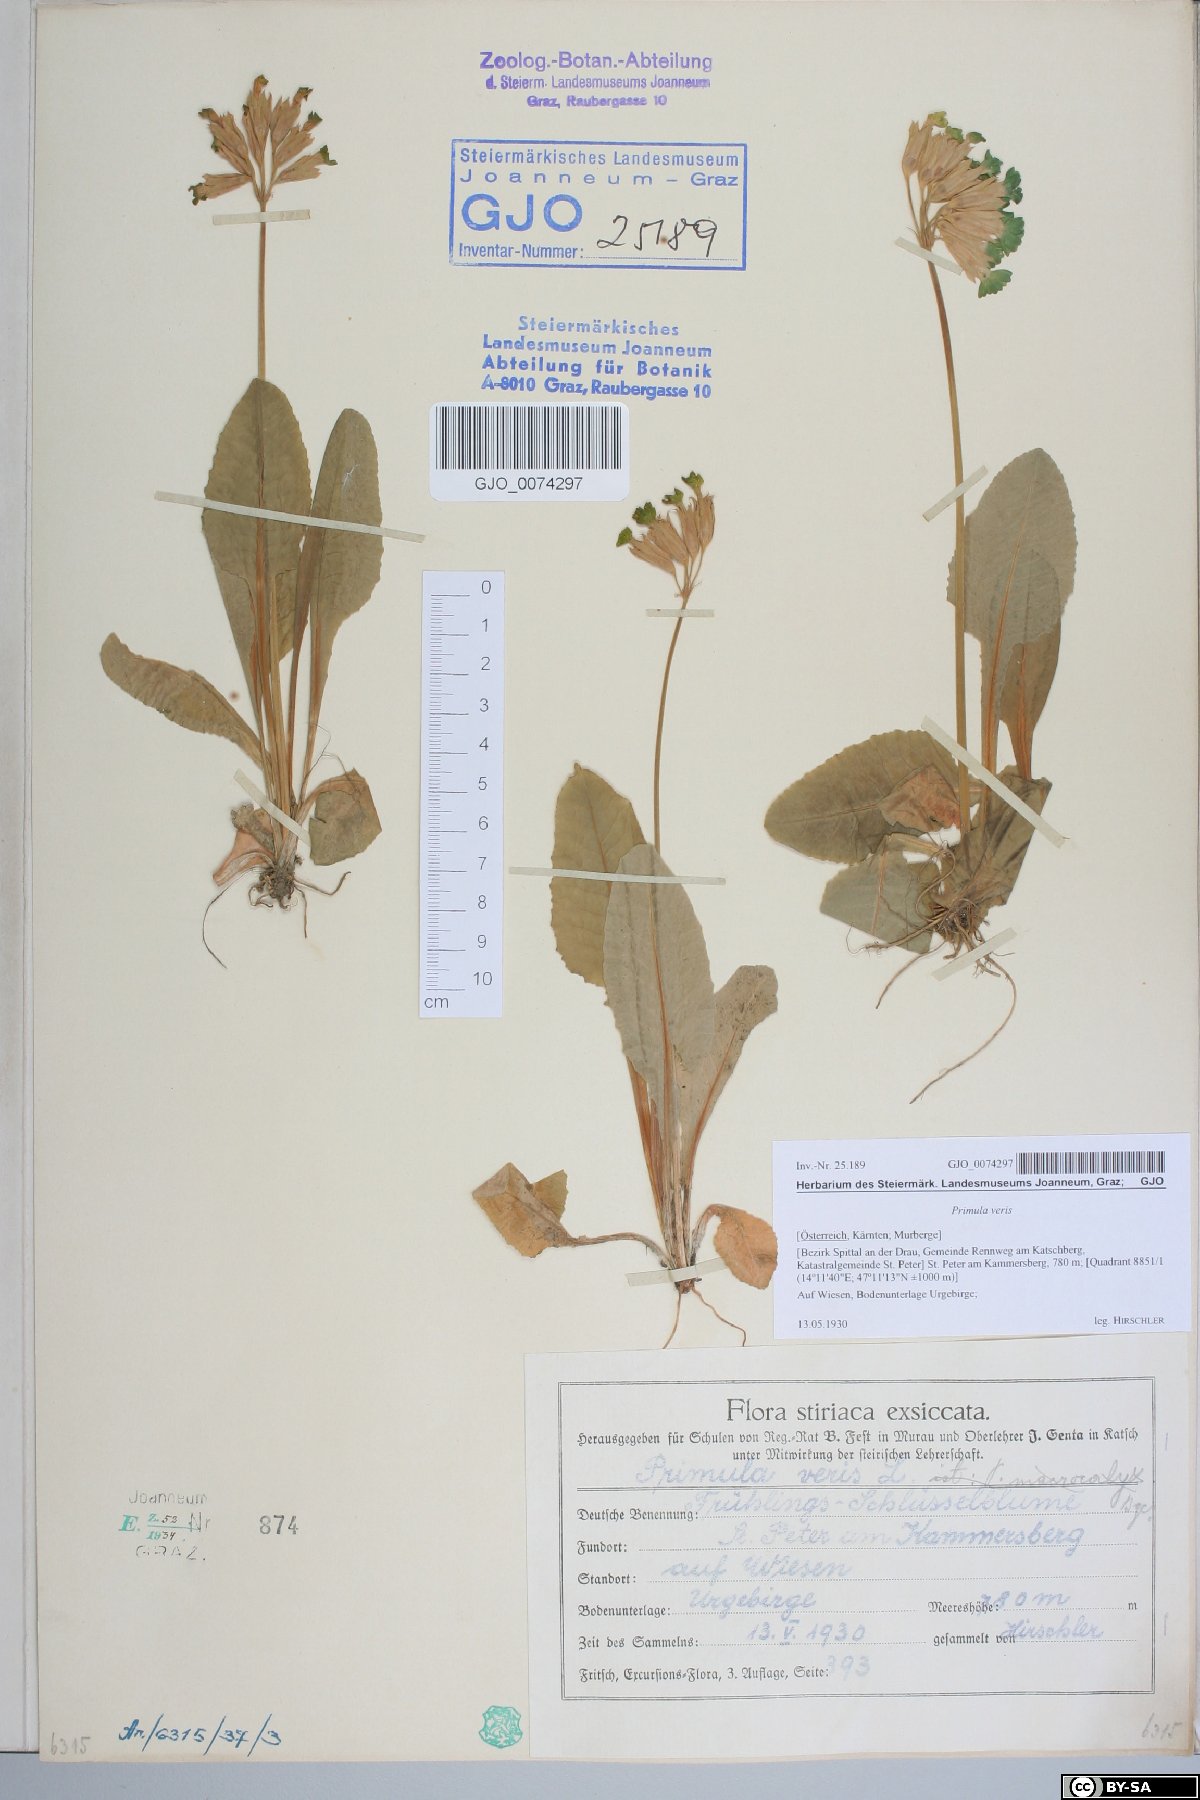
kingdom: Plantae
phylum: Tracheophyta
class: Magnoliopsida
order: Ericales
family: Primulaceae
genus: Primula
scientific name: Primula veris
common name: Cowslip
